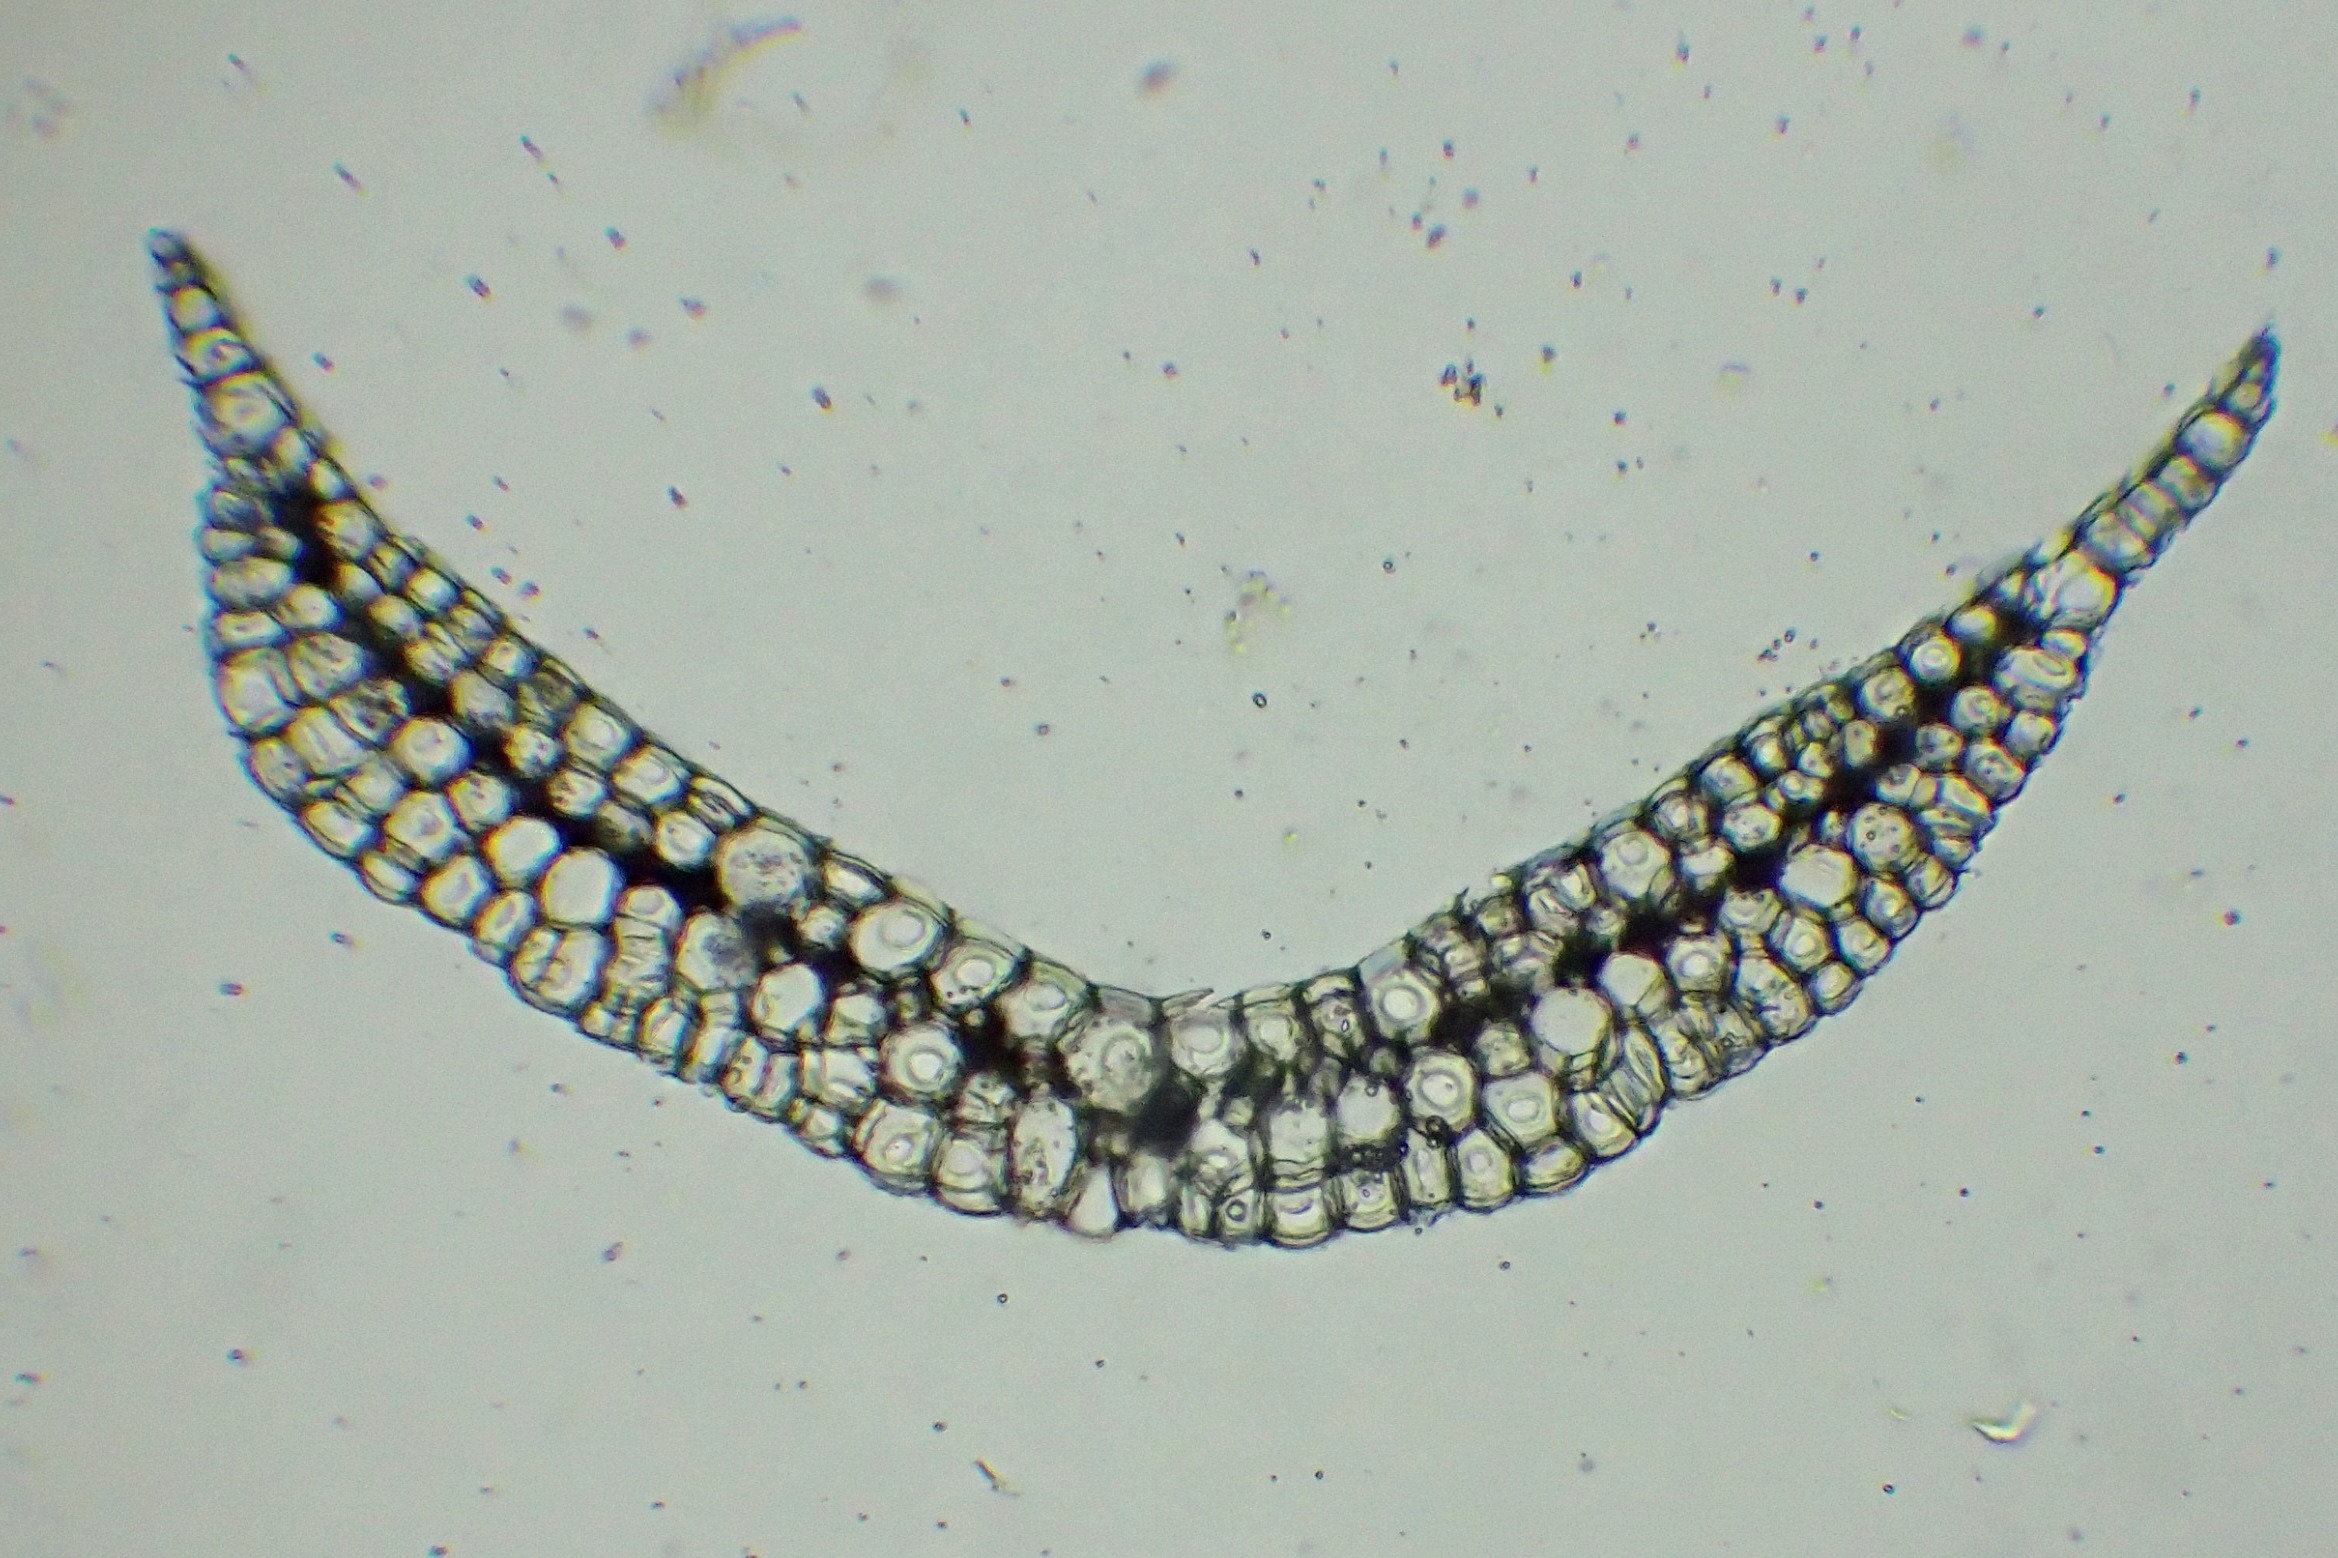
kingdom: Plantae
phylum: Bryophyta
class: Bryopsida
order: Dicranales
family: Leucobryaceae
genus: Leucobryum
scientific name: Leucobryum glaucum
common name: Almindelig hvidmos
